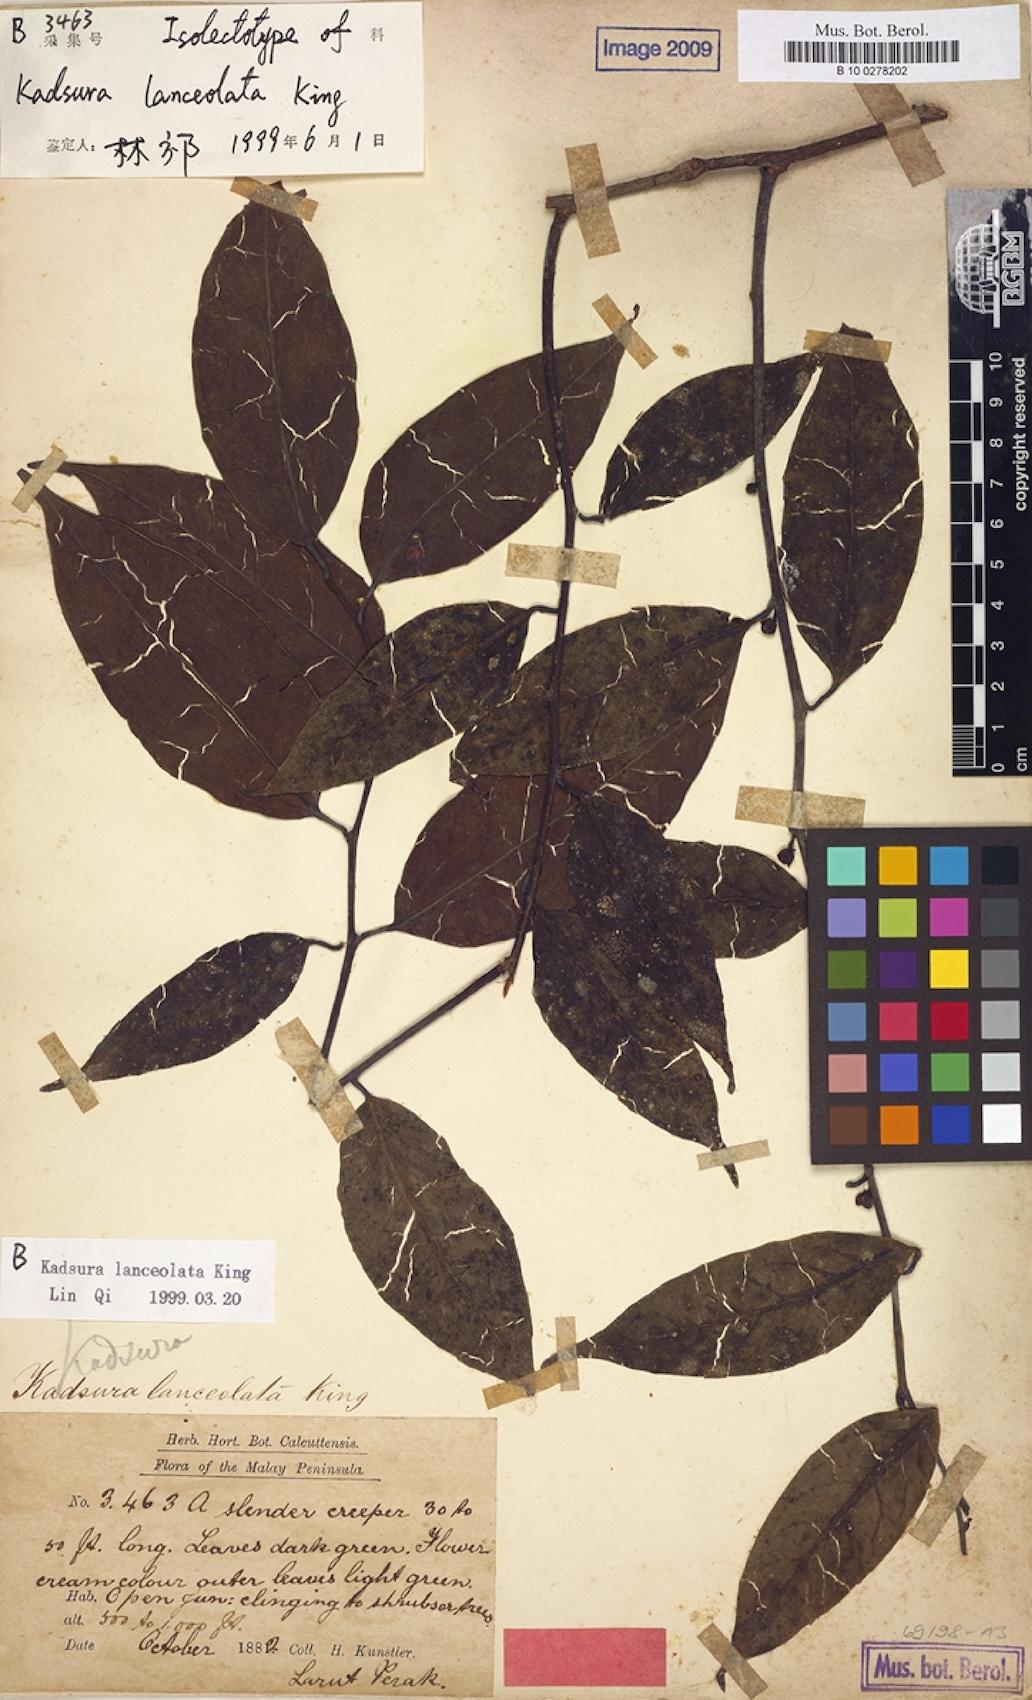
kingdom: Plantae
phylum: Tracheophyta
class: Magnoliopsida
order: Austrobaileyales
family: Schisandraceae
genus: Kadsura
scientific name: Kadsura lanceolata
